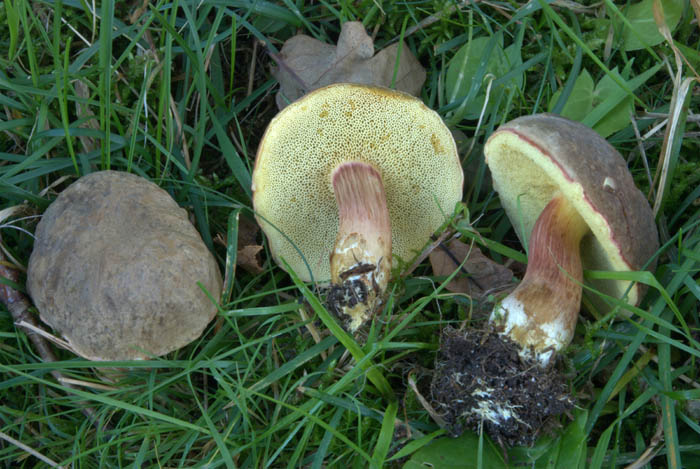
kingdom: Fungi
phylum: Basidiomycota
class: Agaricomycetes
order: Boletales
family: Boletaceae
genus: Xerocomellus
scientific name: Xerocomellus pruinatus
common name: dugget rørhat
